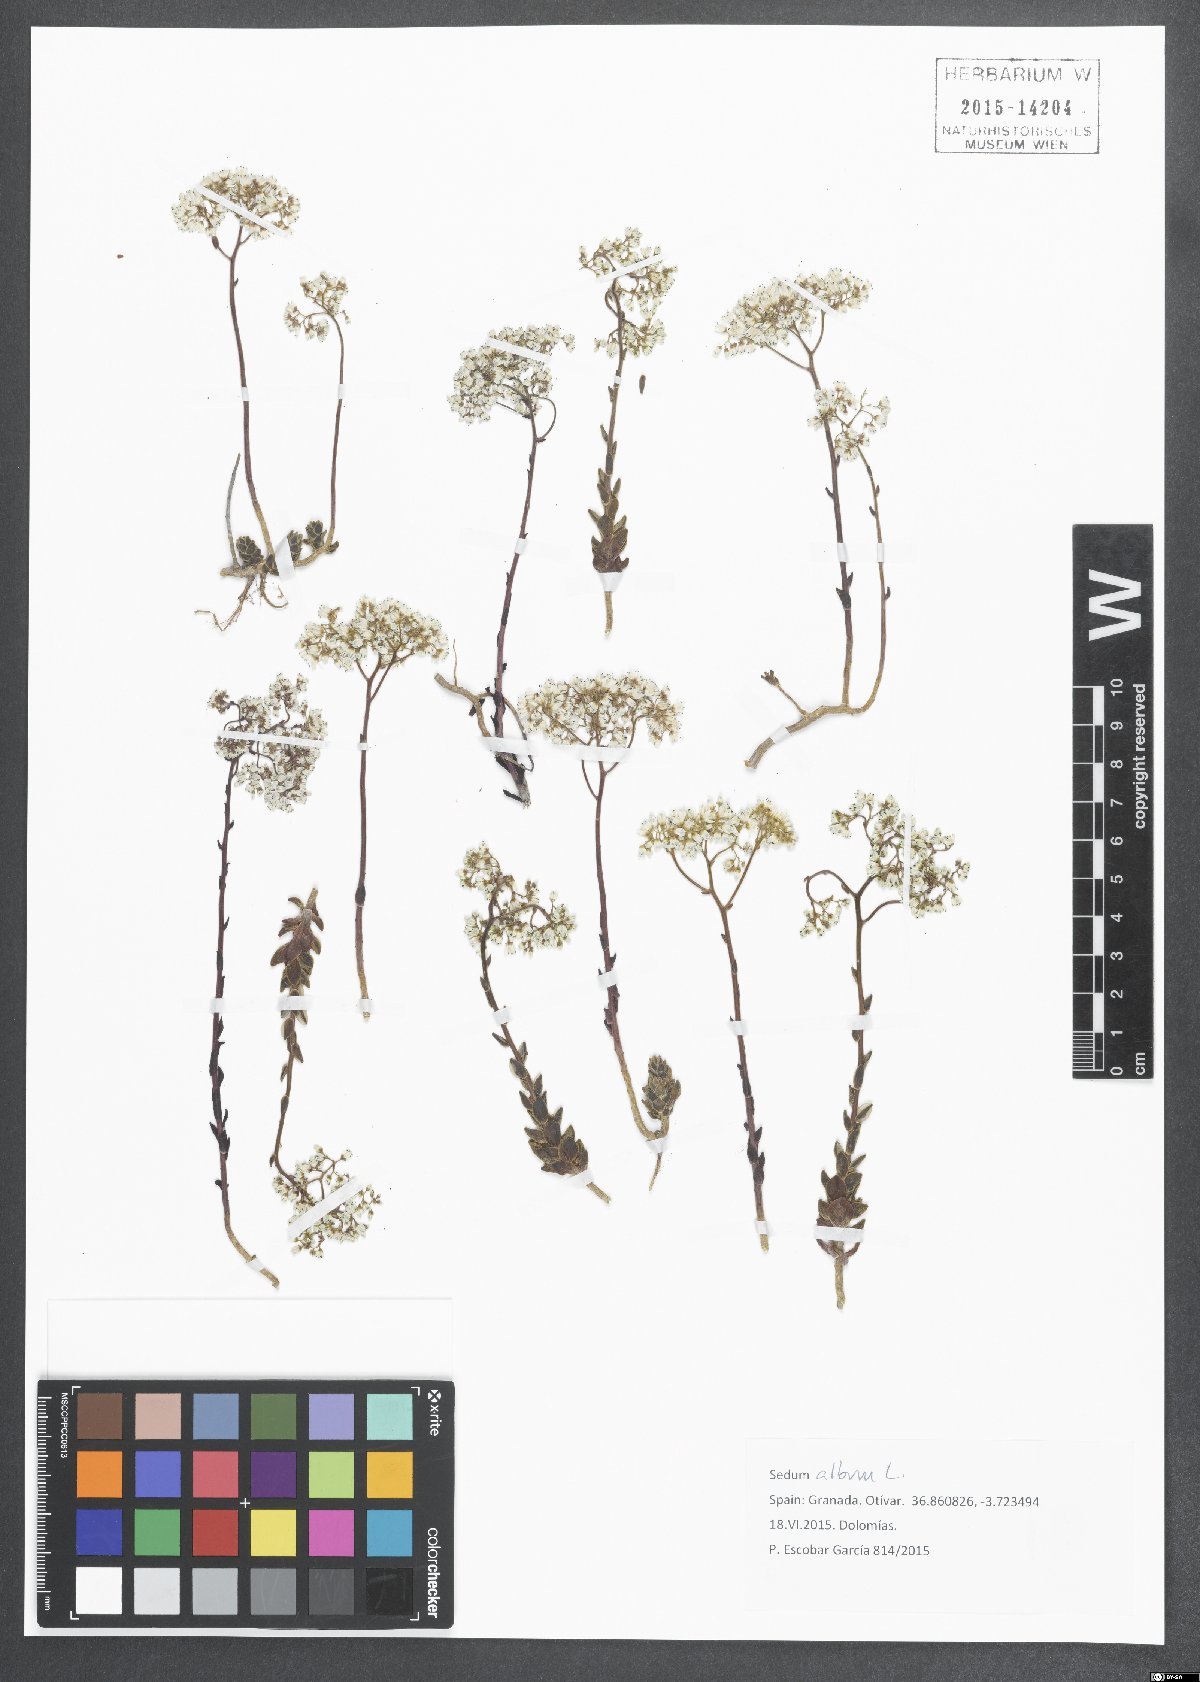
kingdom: Plantae
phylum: Tracheophyta
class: Magnoliopsida
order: Saxifragales
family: Crassulaceae
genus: Sedum
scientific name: Sedum album
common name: White stonecrop
